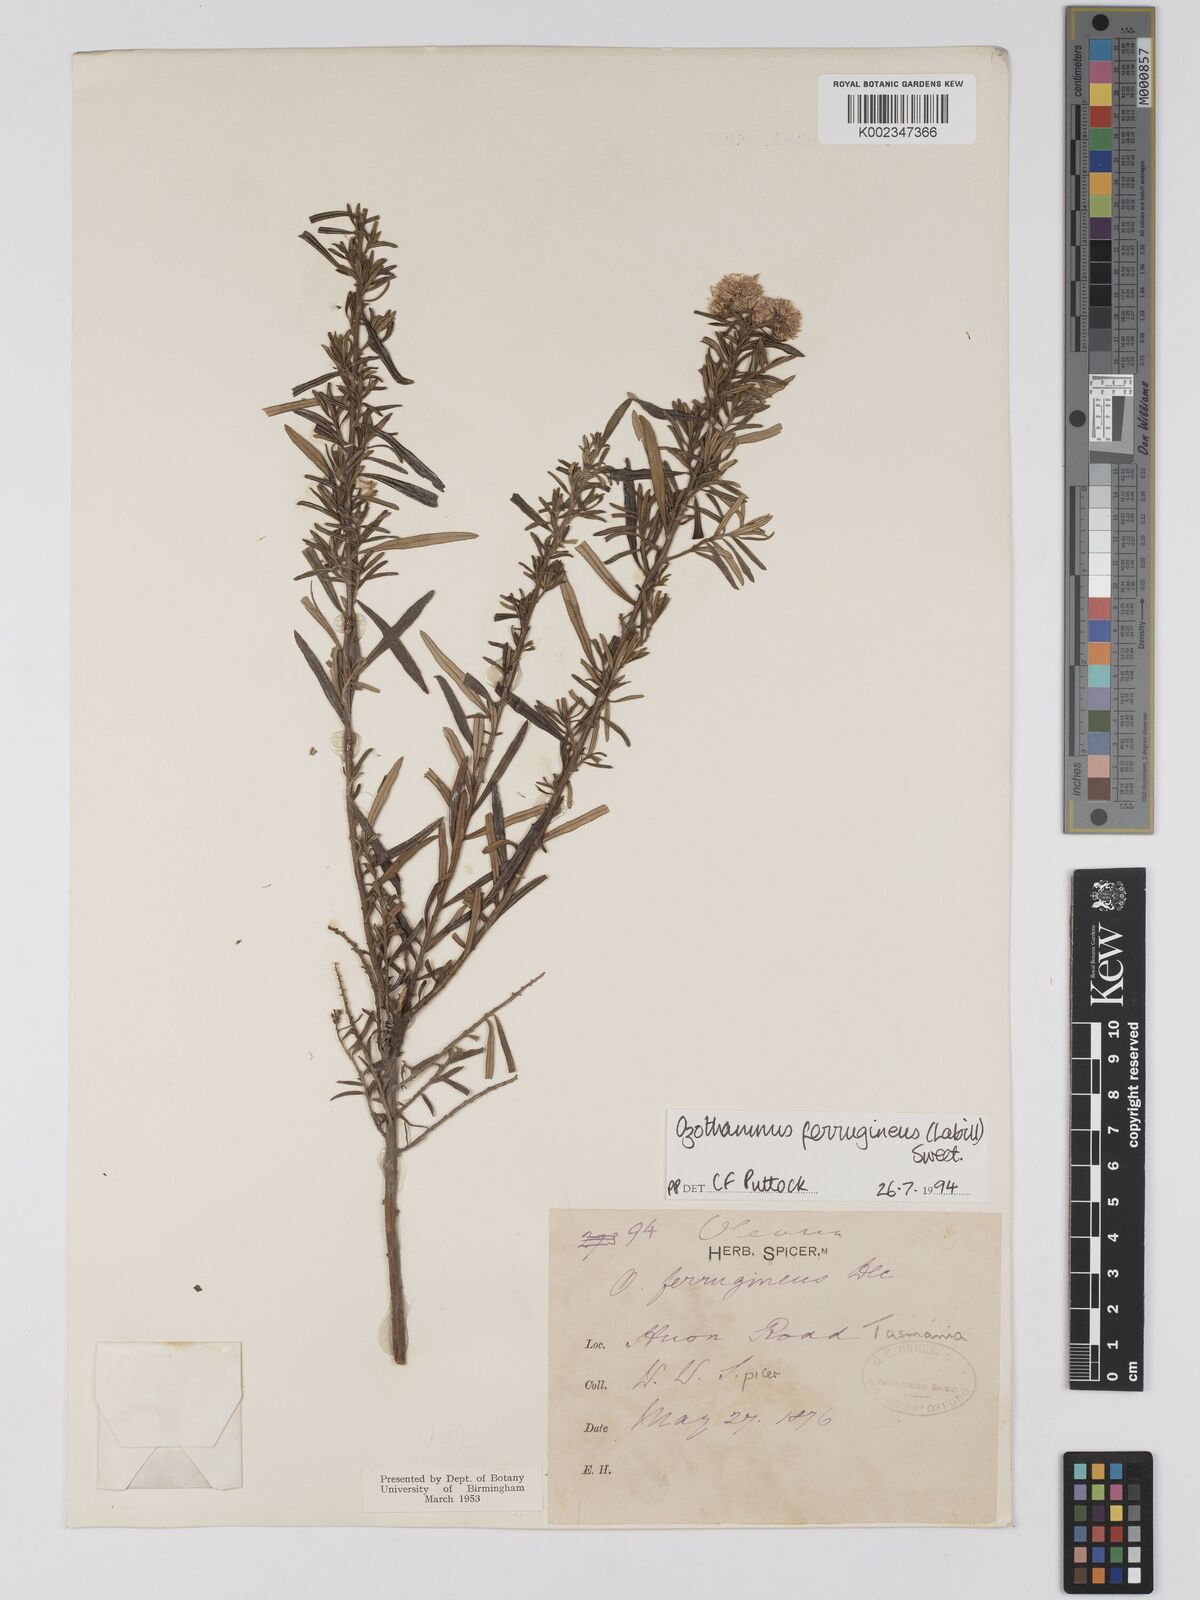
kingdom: Plantae
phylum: Tracheophyta
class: Magnoliopsida
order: Asterales
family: Asteraceae
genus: Ozothamnus
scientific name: Ozothamnus argophyllus
